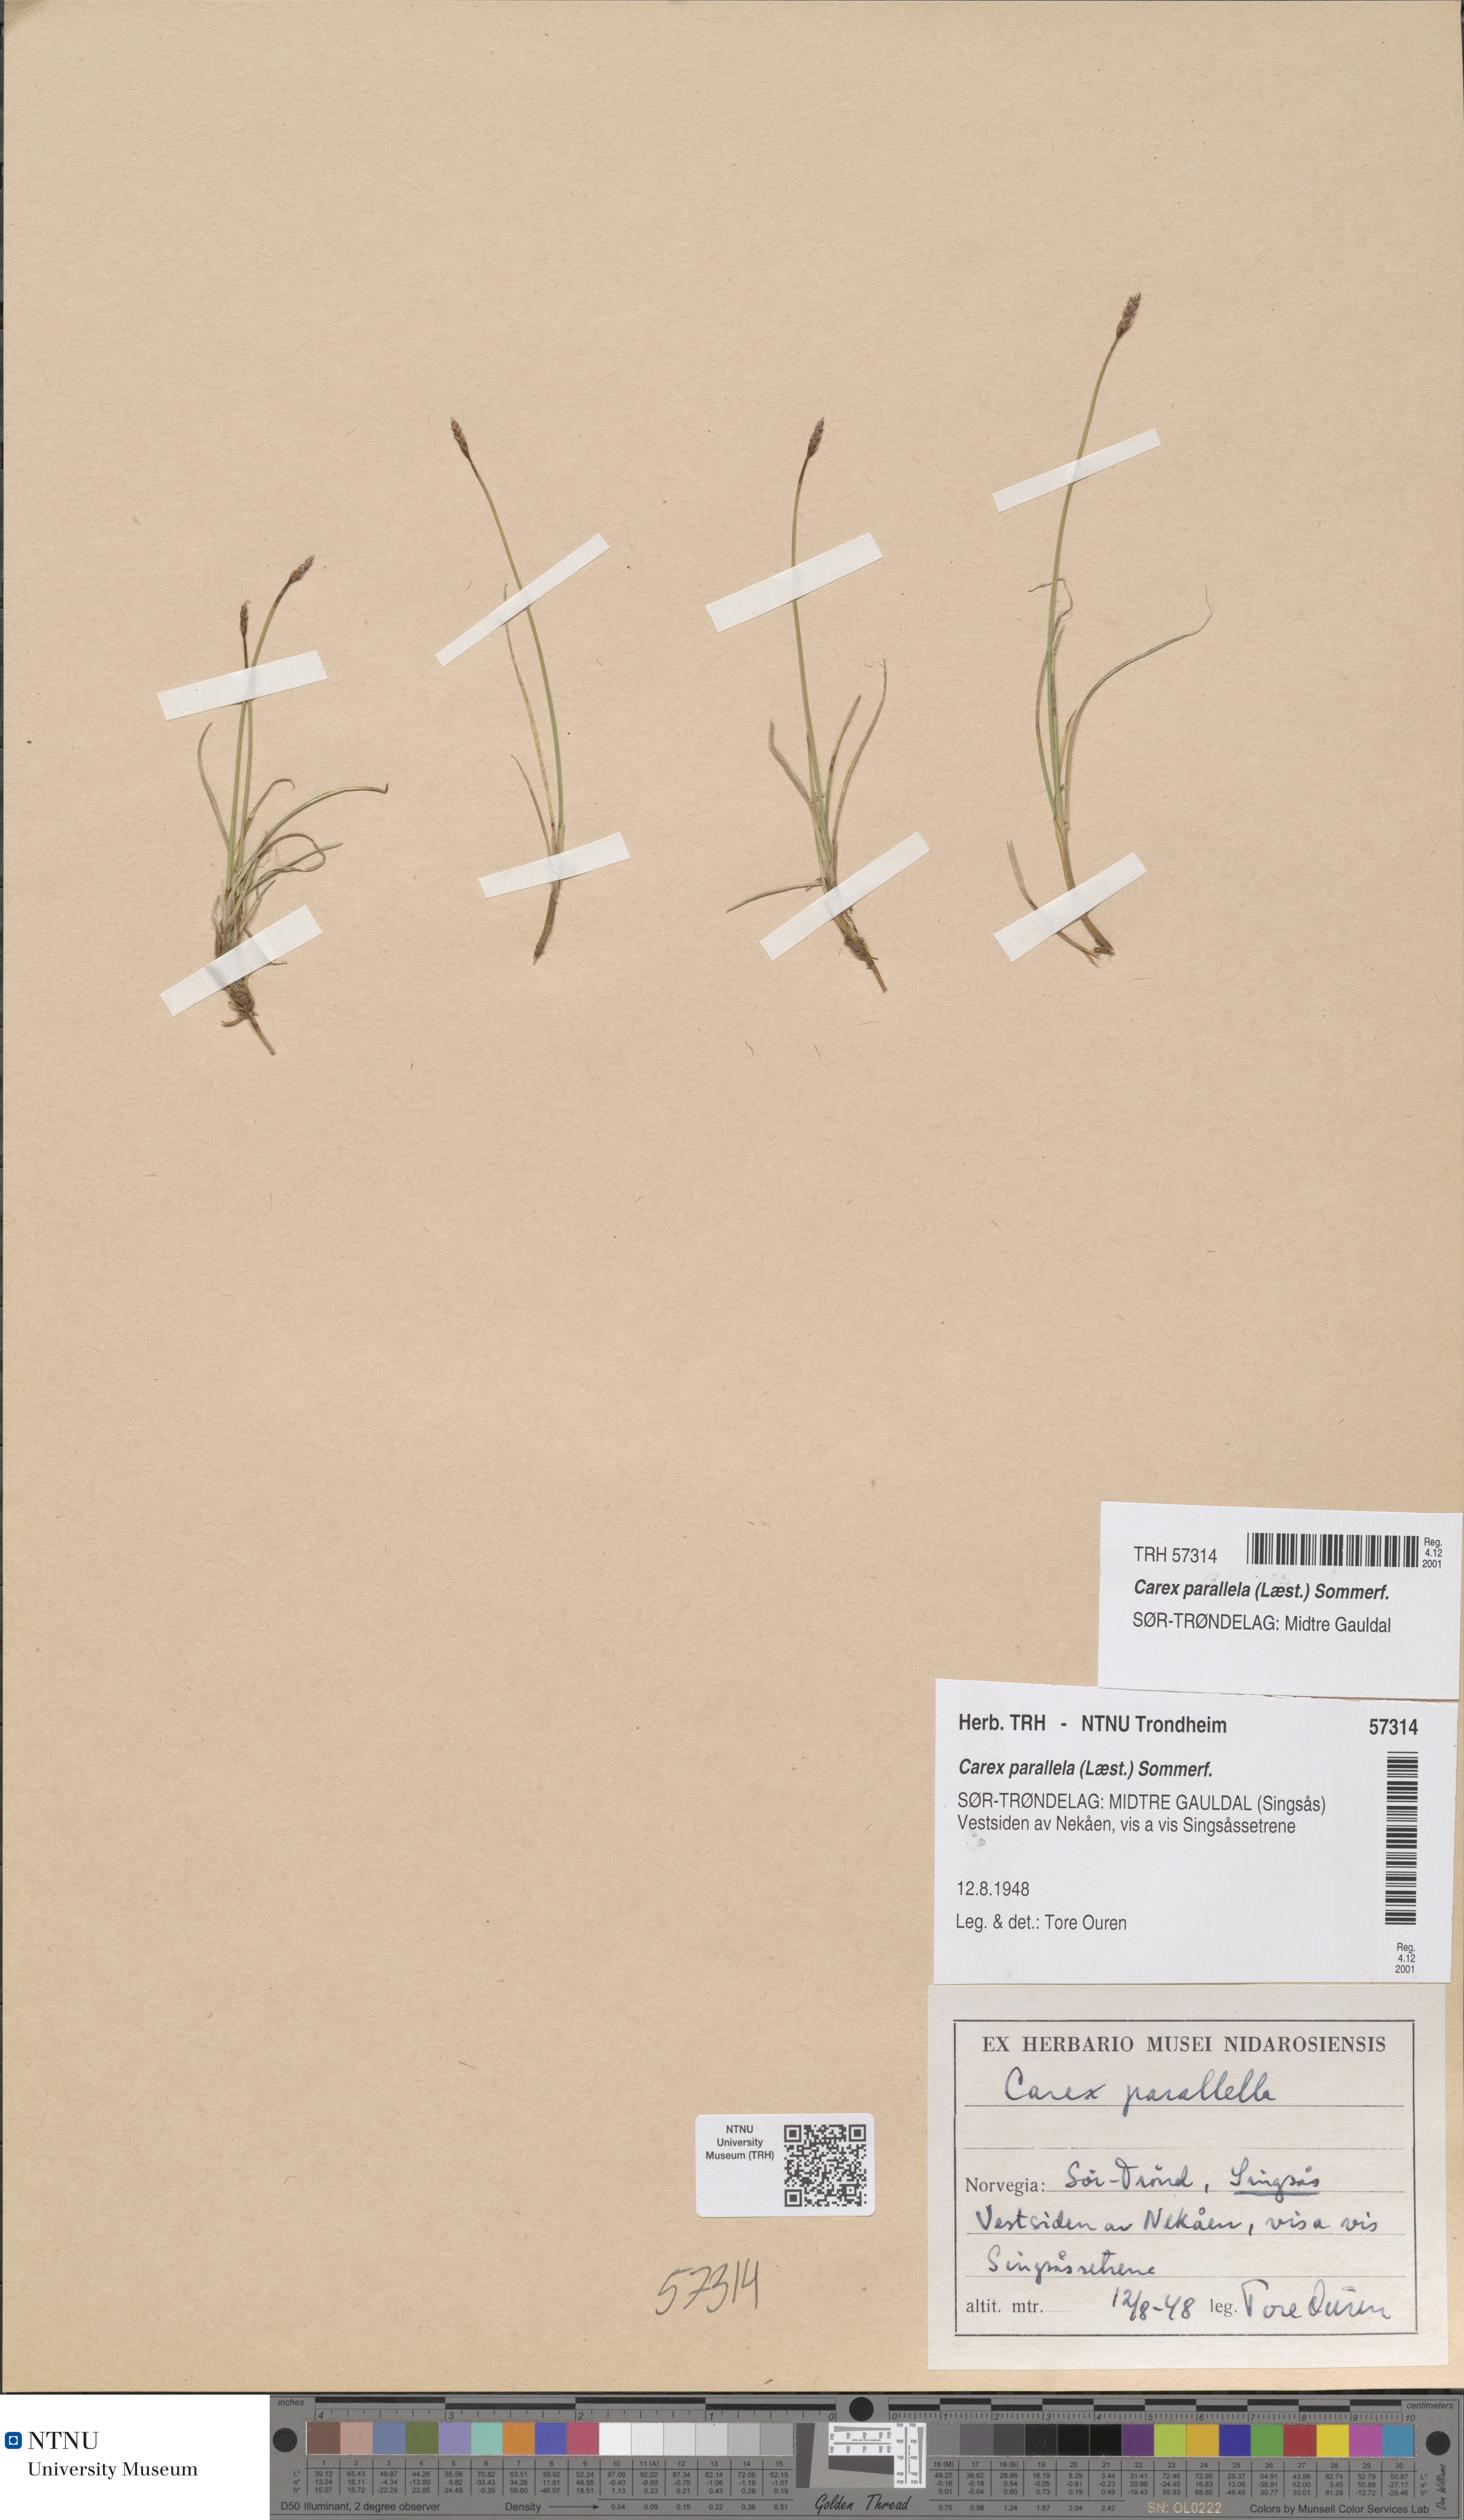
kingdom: Plantae
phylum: Tracheophyta
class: Liliopsida
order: Poales
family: Cyperaceae
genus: Carex
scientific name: Carex parallela
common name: Parallel sedge
